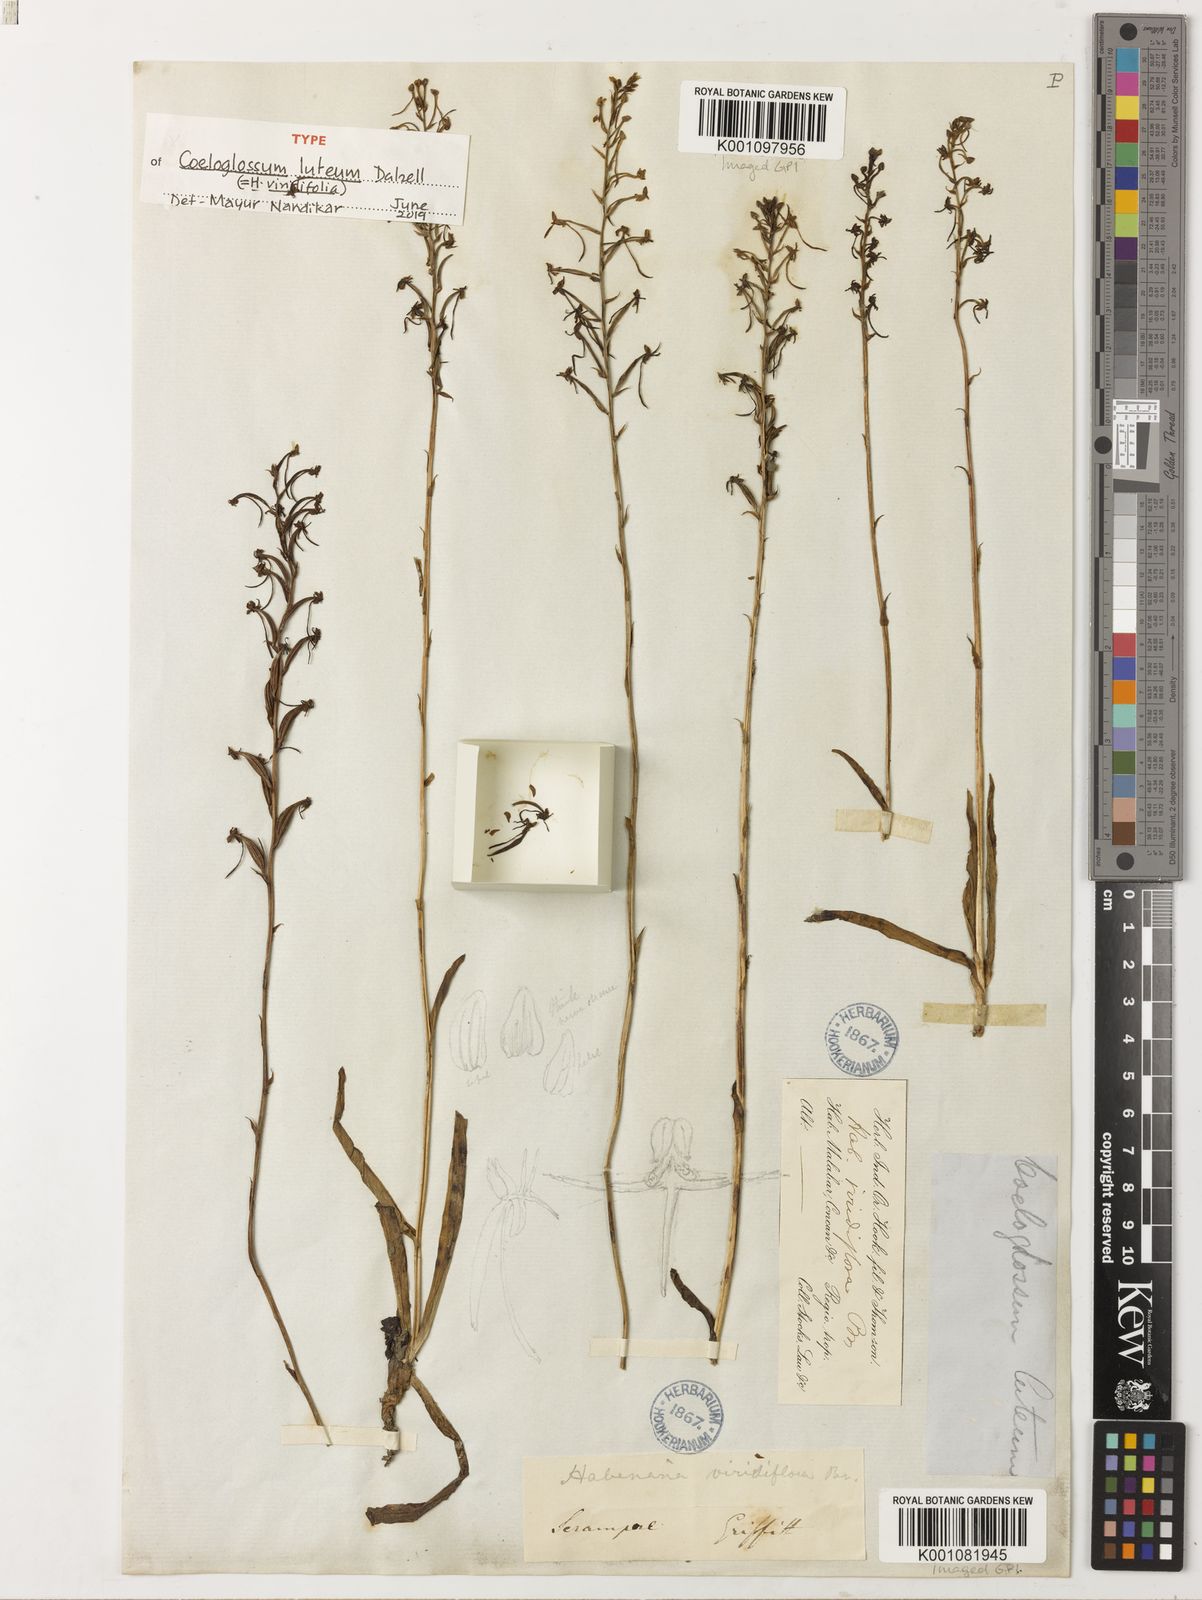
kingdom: Plantae
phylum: Tracheophyta
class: Liliopsida
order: Asparagales
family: Orchidaceae
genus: Habenaria
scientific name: Habenaria
